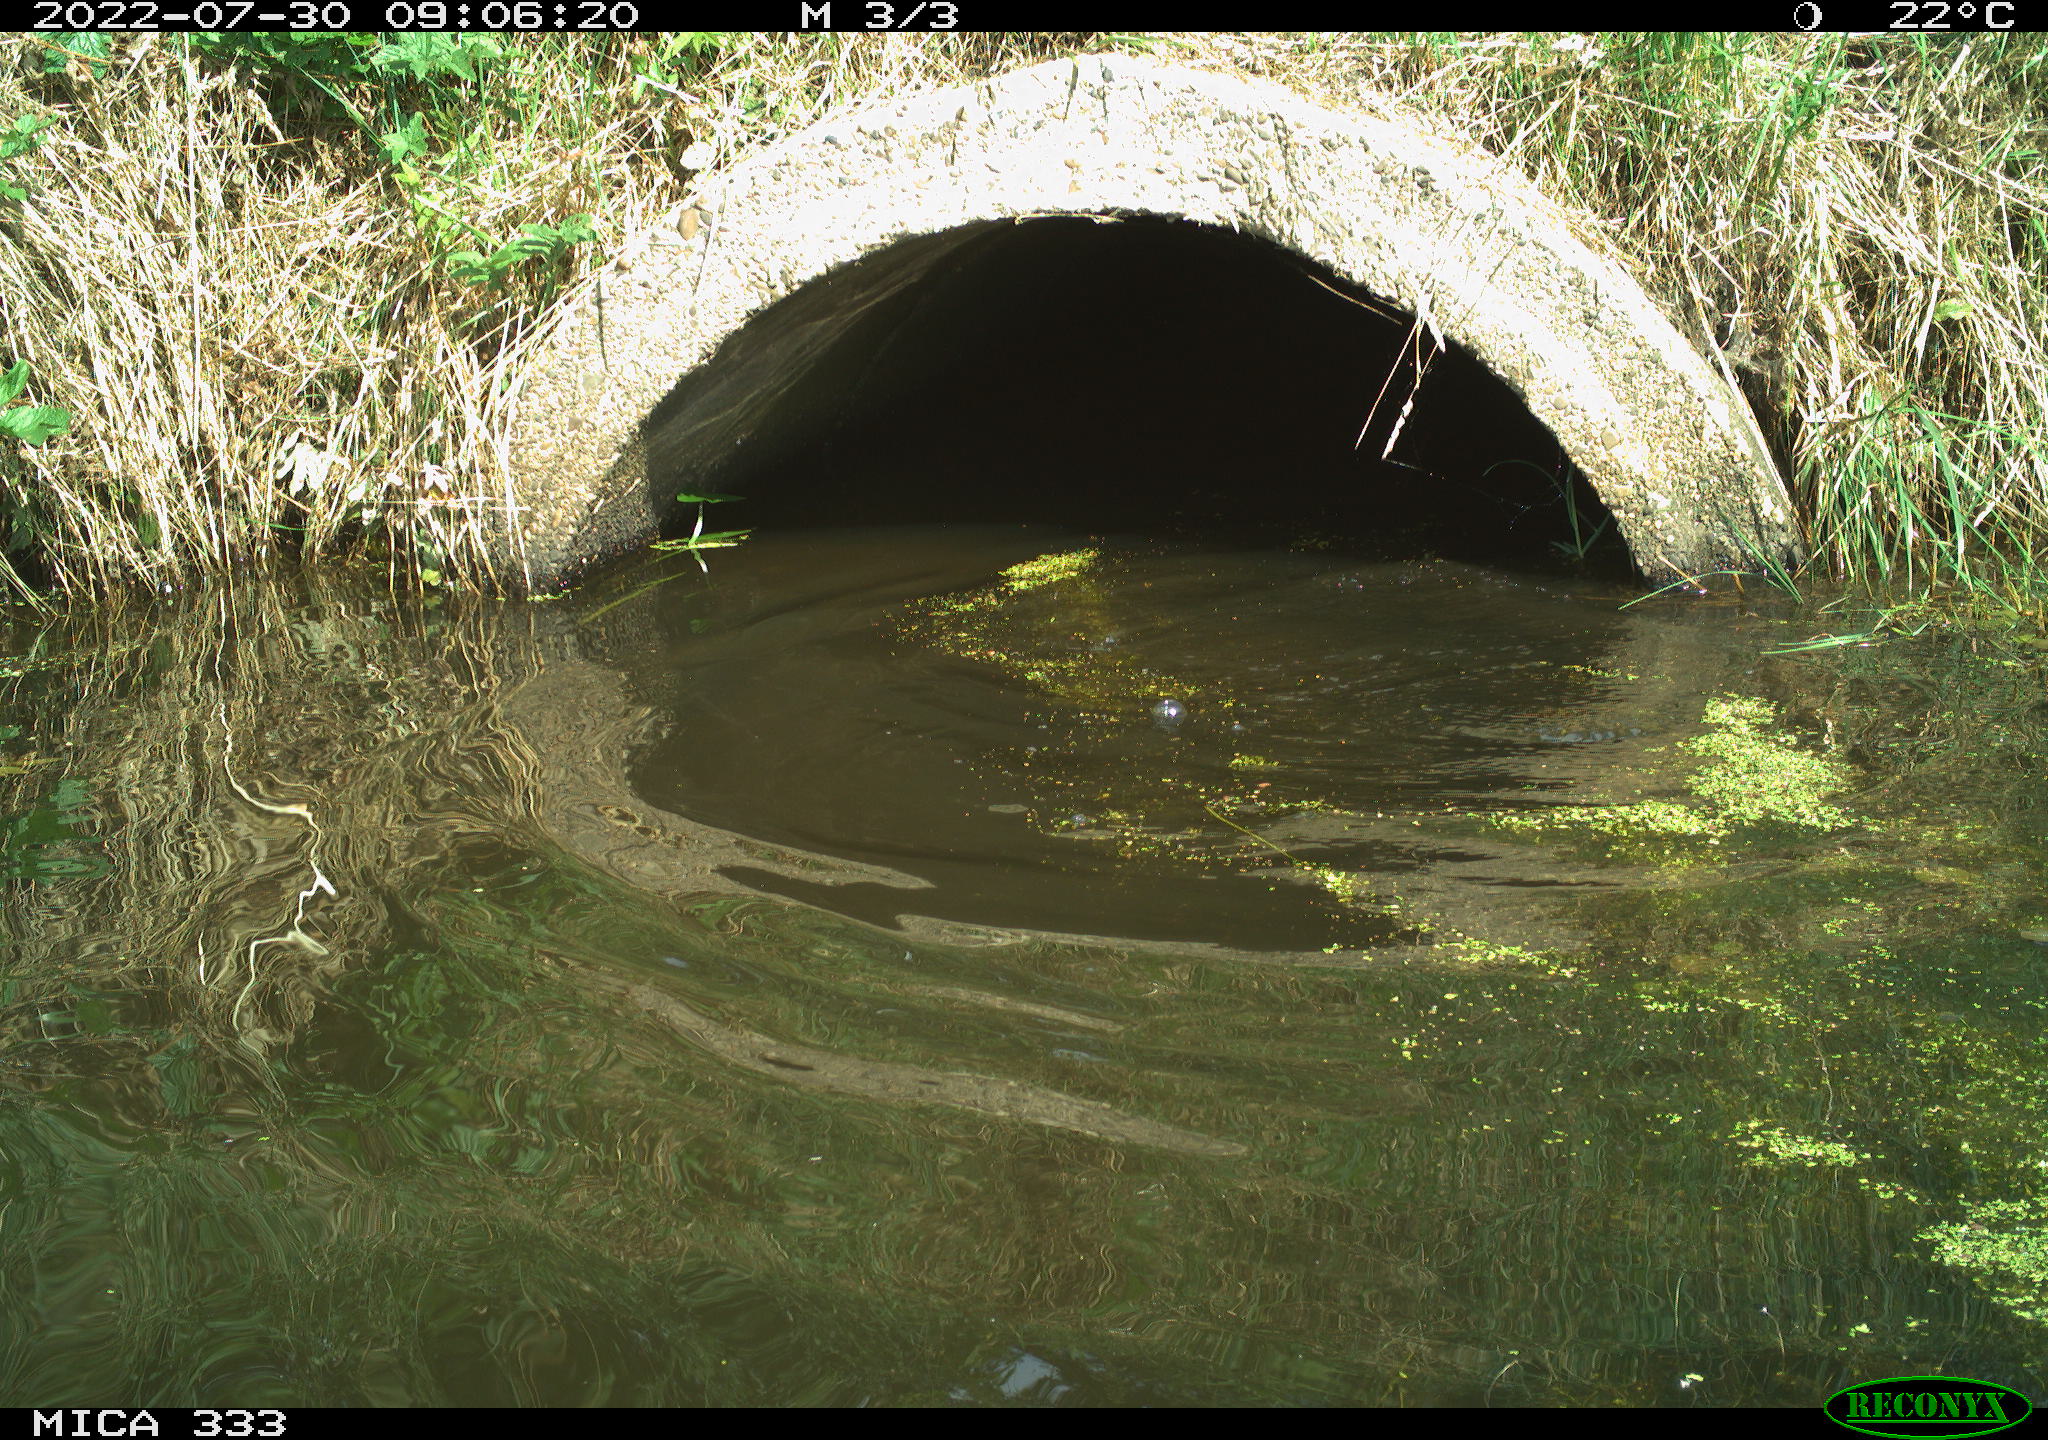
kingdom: Animalia
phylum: Chordata
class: Aves
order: Suliformes
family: Phalacrocoracidae
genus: Phalacrocorax
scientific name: Phalacrocorax carbo
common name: Great cormorant
